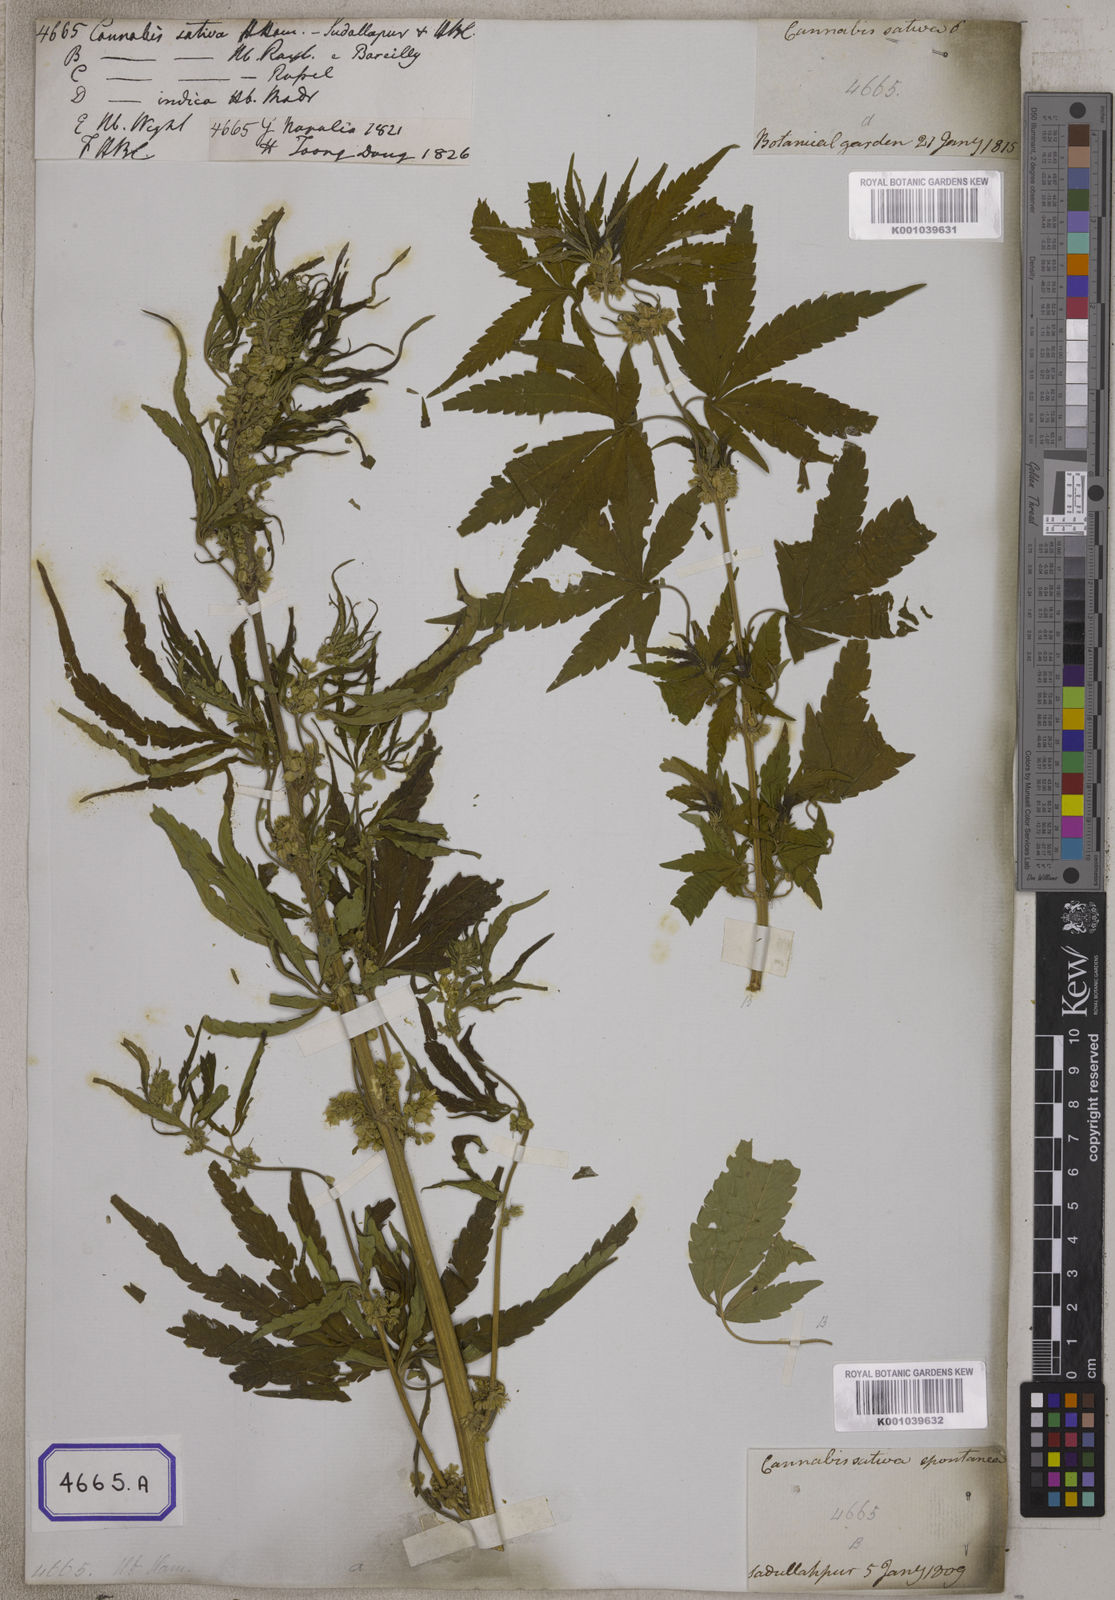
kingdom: Plantae
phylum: Tracheophyta
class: Magnoliopsida
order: Rosales
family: Cannabaceae
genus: Cannabis
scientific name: Cannabis sativa
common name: Hemp
